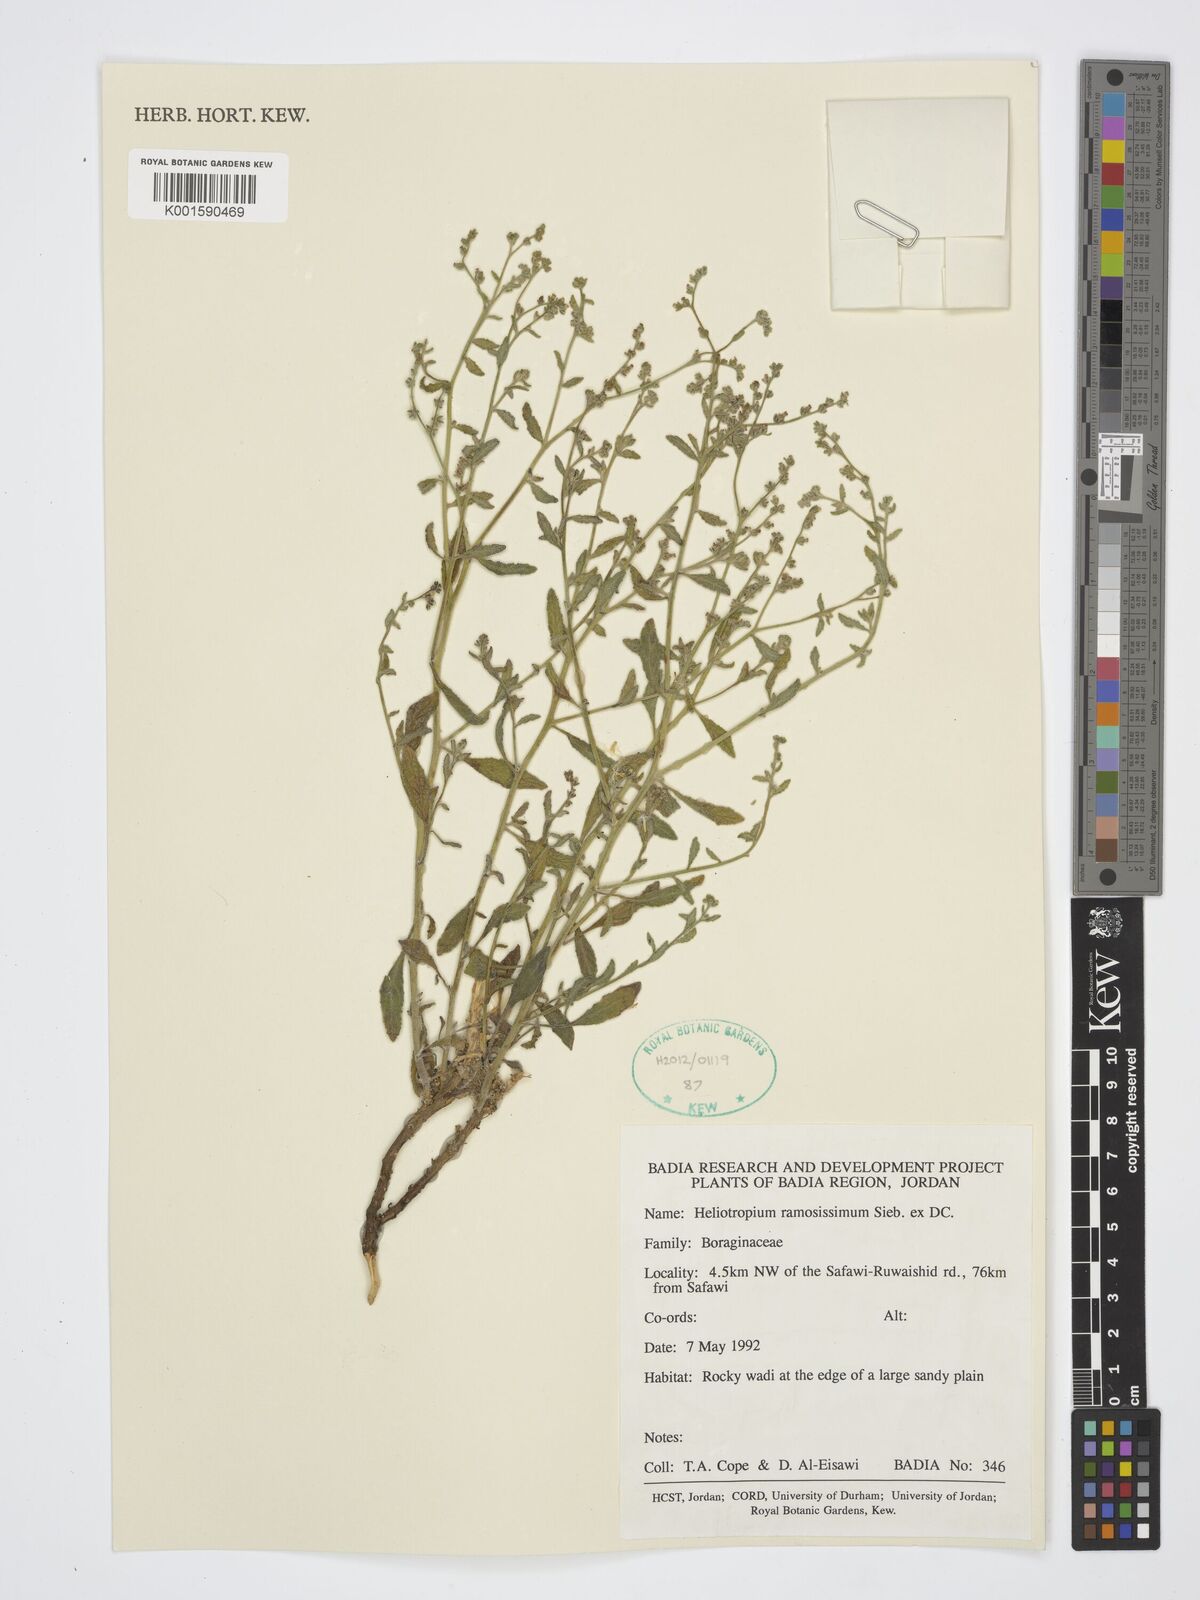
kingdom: Plantae
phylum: Tracheophyta
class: Magnoliopsida
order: Boraginales
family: Heliotropiaceae
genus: Heliotropium
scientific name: Heliotropium ramosissimum
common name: Wavy heliotrope
